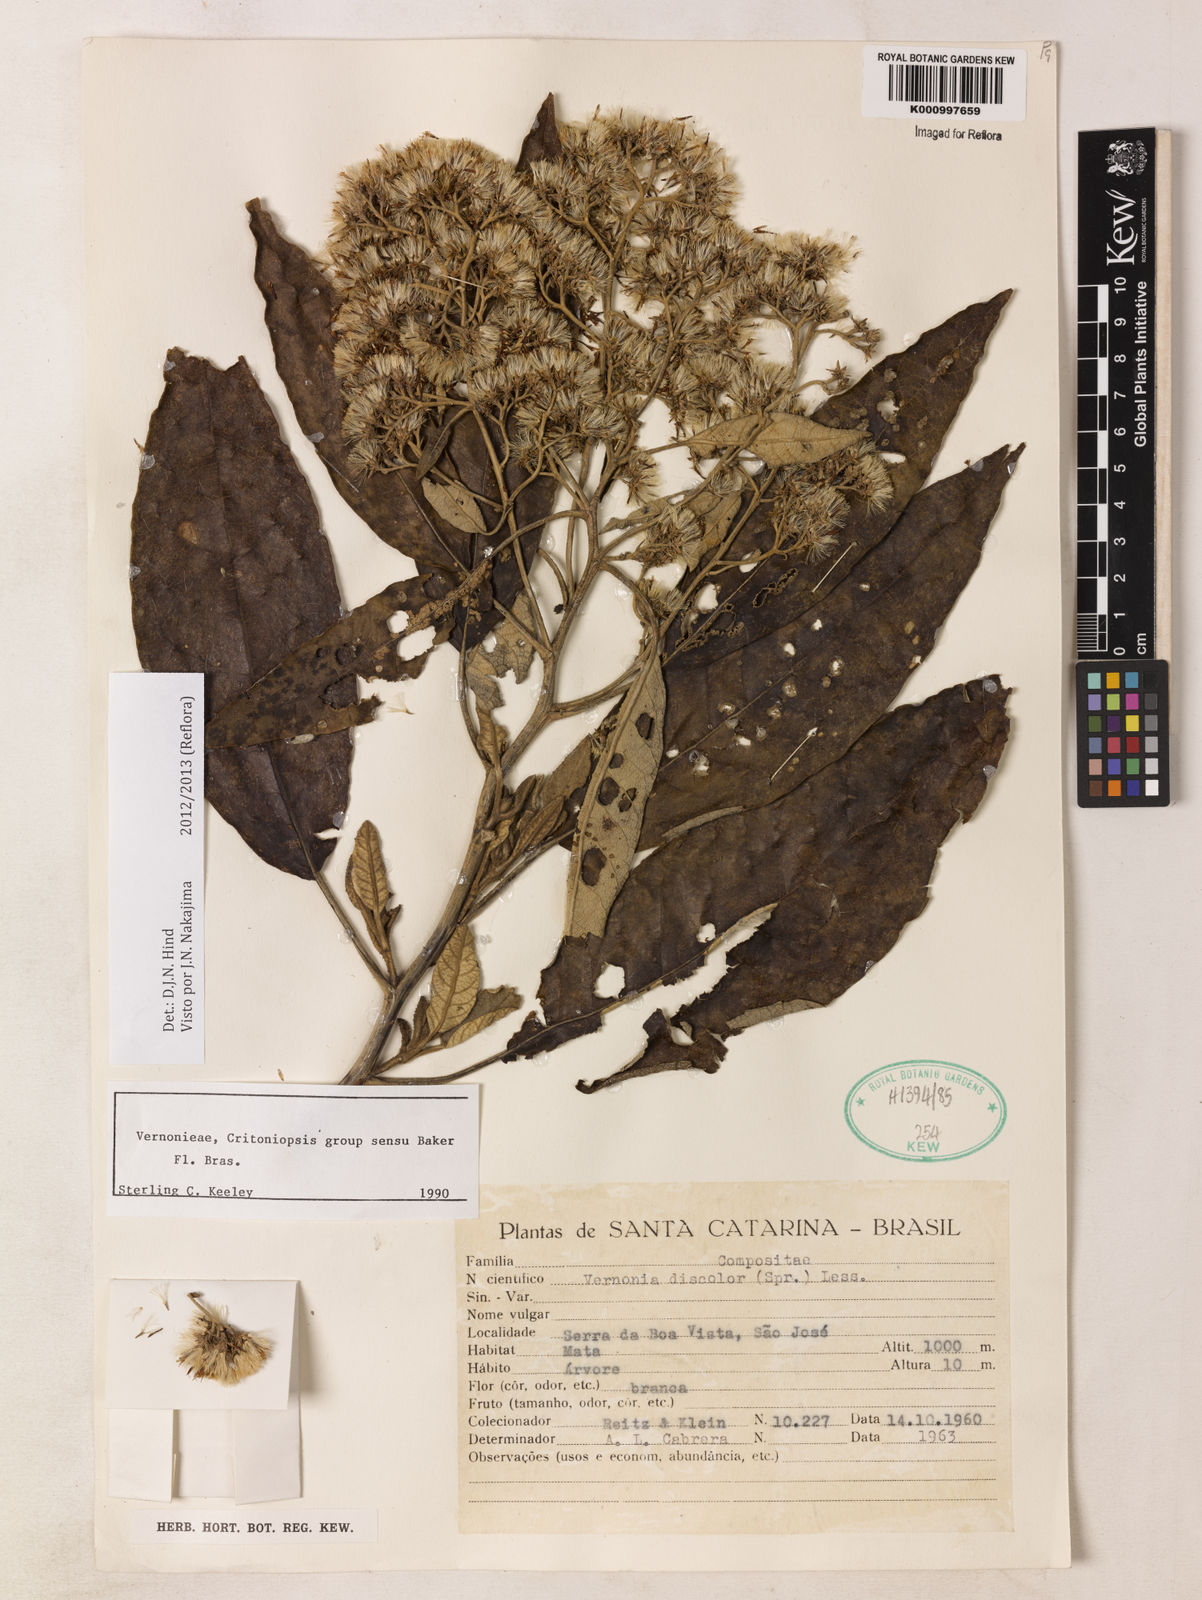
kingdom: Plantae
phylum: Tracheophyta
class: Magnoliopsida
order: Asterales
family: Asteraceae
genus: Vernonanthura
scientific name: Vernonanthura discolor
